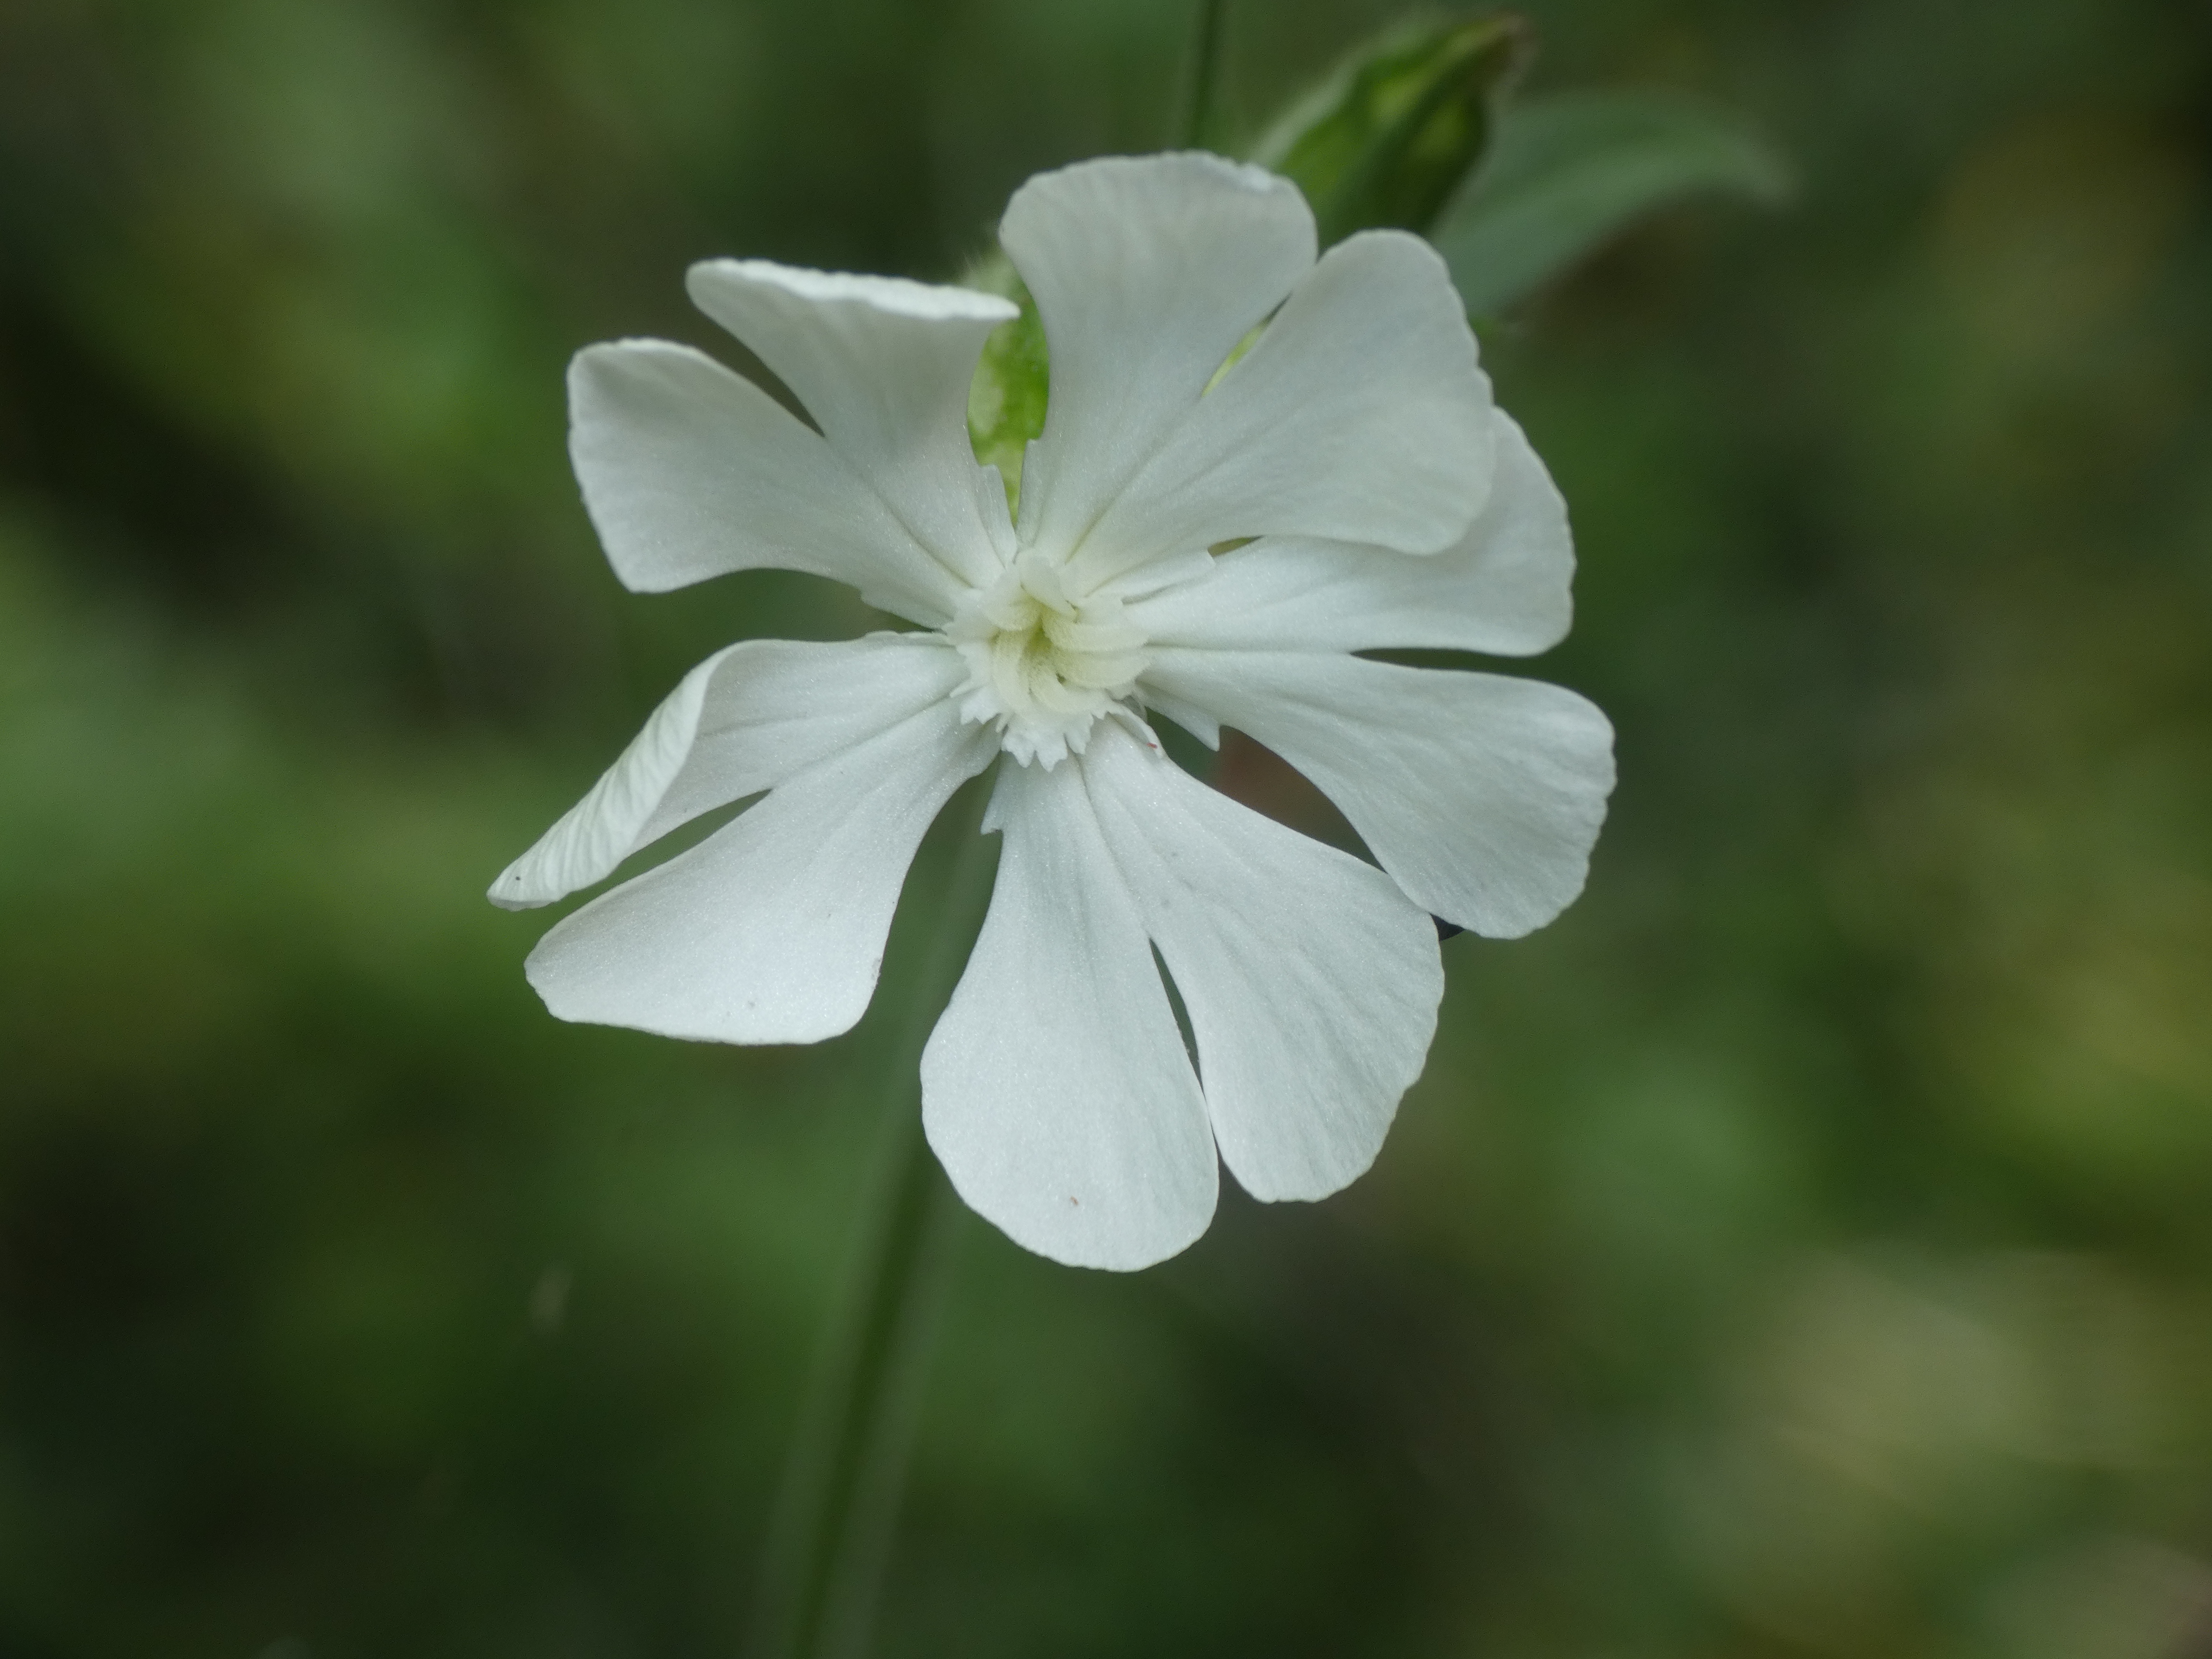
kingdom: Plantae
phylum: Tracheophyta
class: Magnoliopsida
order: Caryophyllales
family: Caryophyllaceae
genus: Silene
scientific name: Silene latifolia
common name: Aftenpragtstjerne
